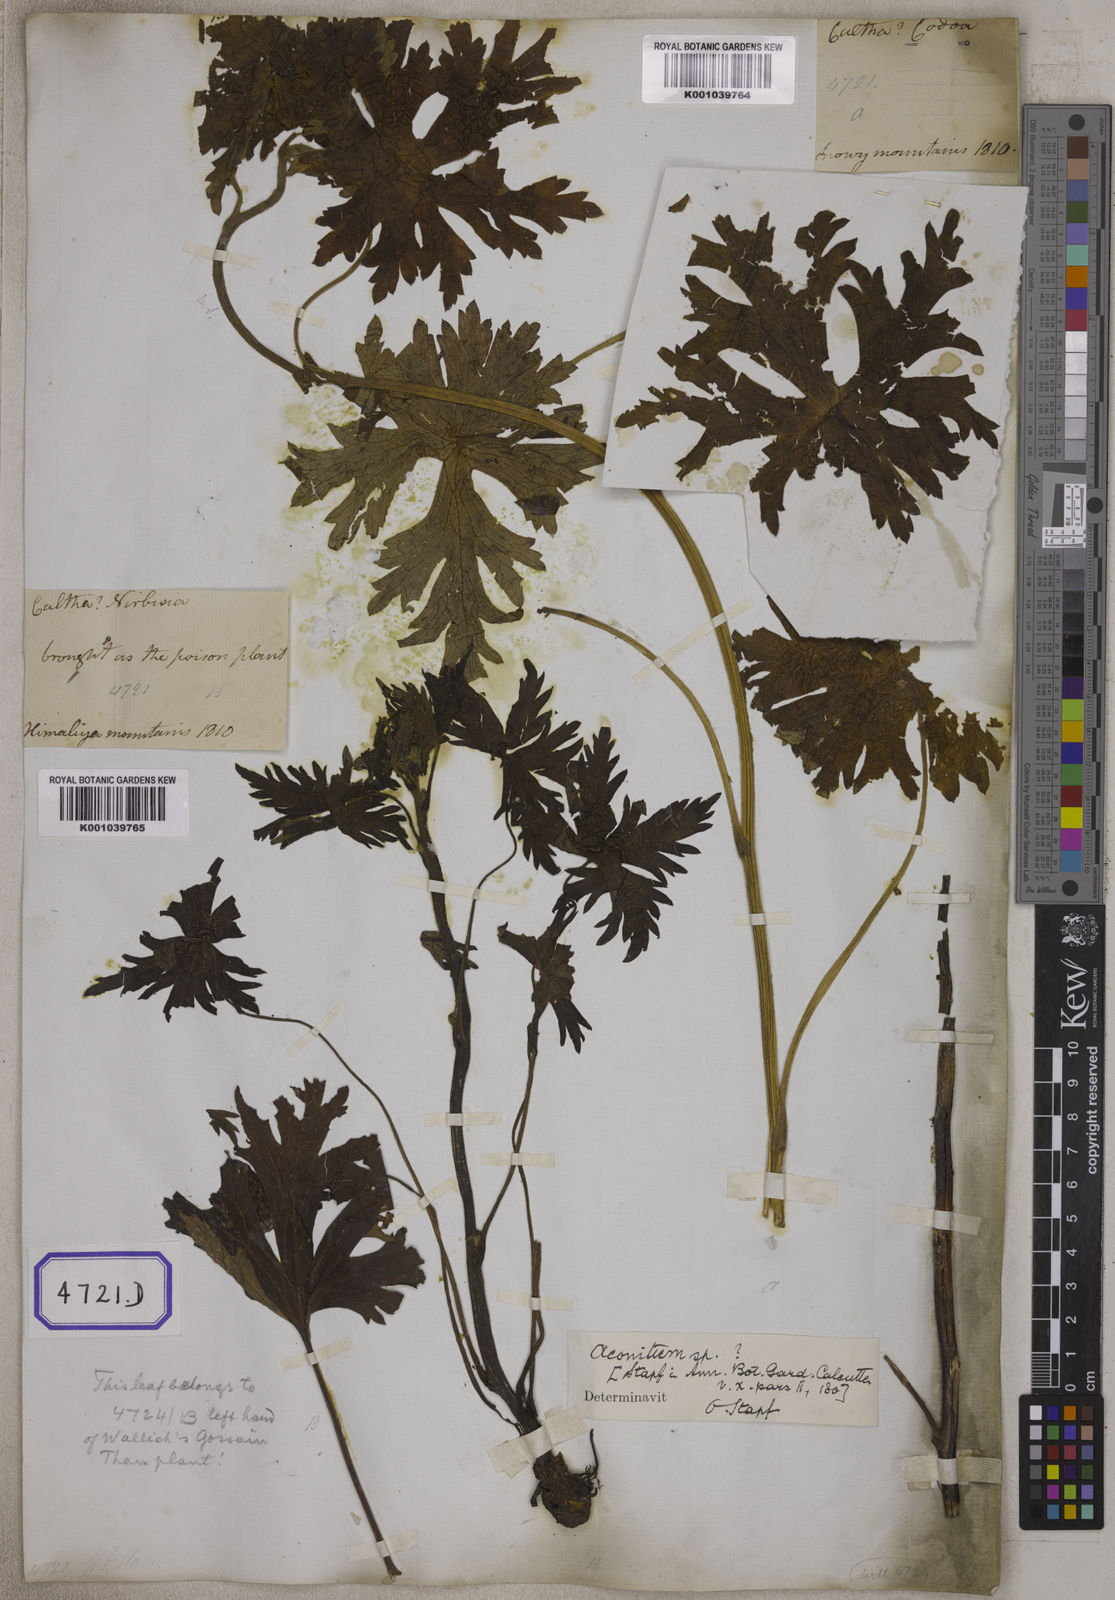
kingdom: Plantae
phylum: Tracheophyta
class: Magnoliopsida
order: Ranunculales
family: Ranunculaceae
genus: Aconitum
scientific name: Aconitum
